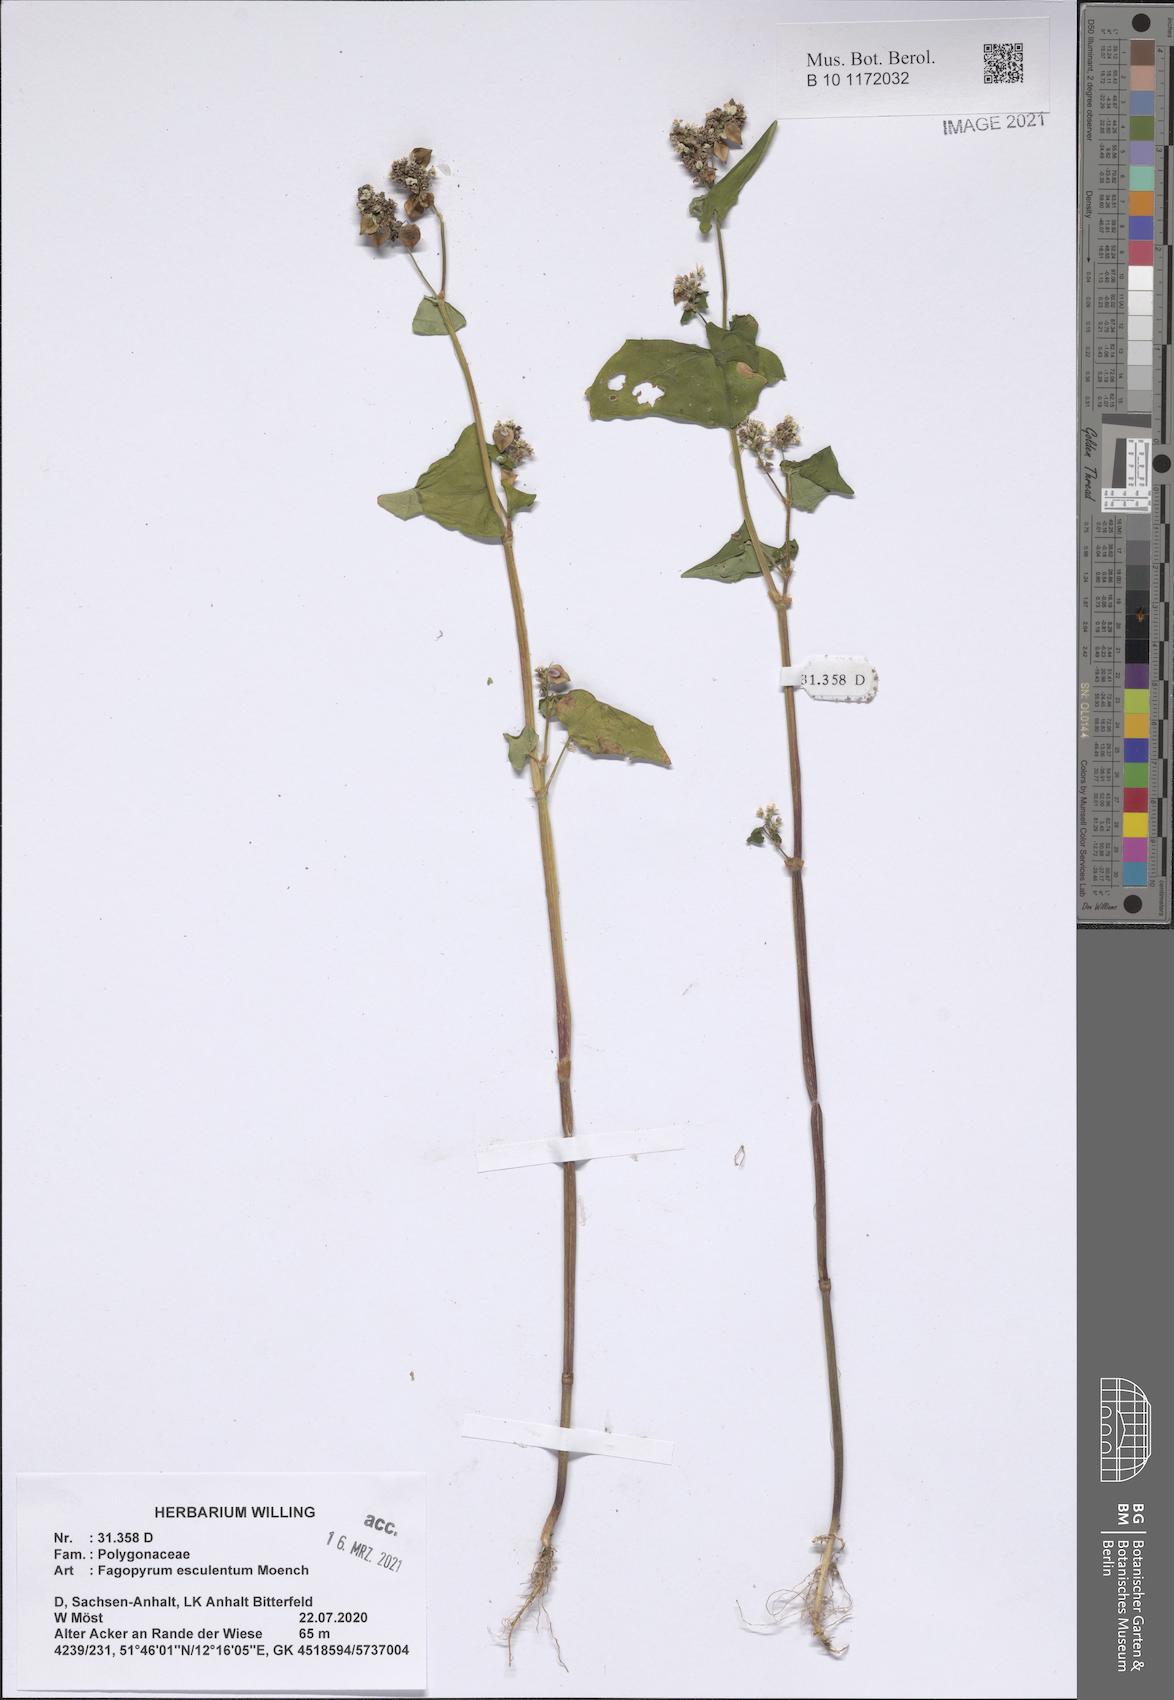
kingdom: Plantae
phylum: Tracheophyta
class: Magnoliopsida
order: Caryophyllales
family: Polygonaceae
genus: Fagopyrum
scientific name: Fagopyrum esculentum
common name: Buckwheat
